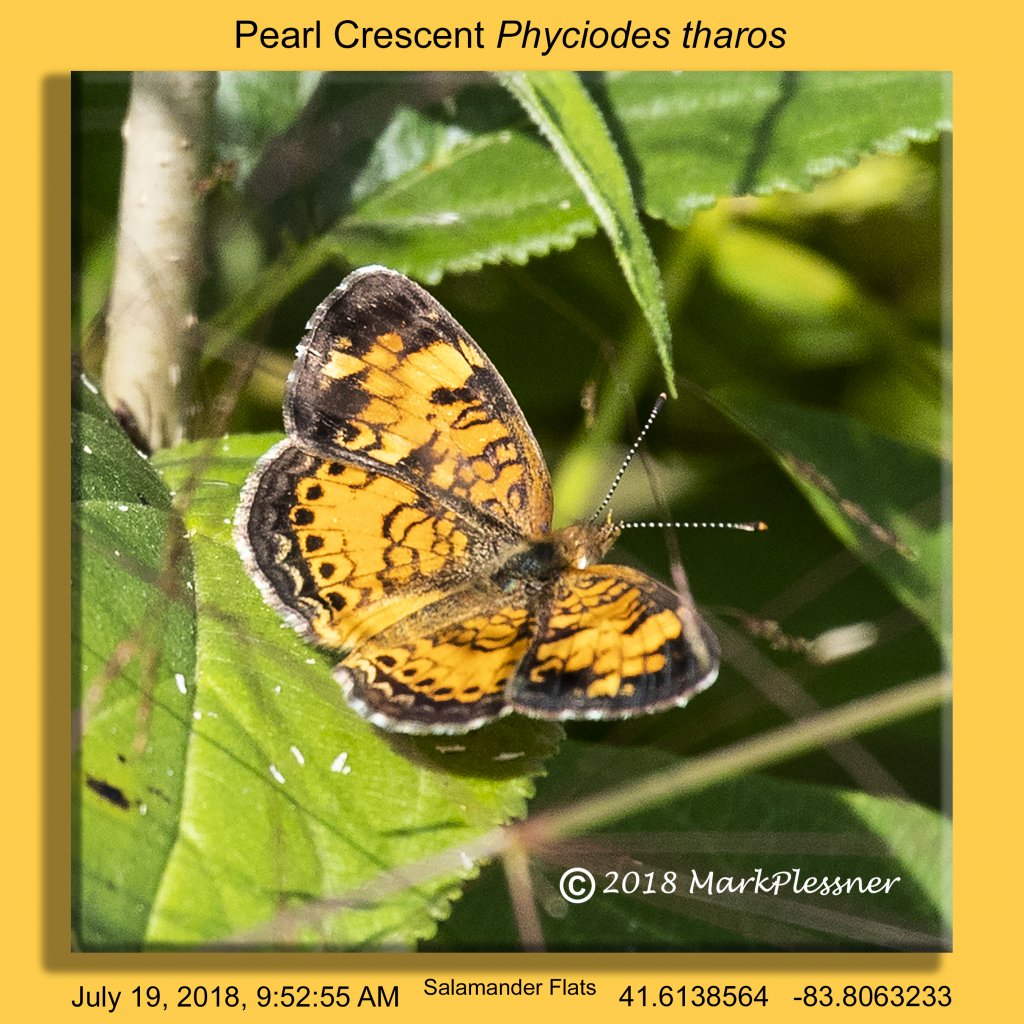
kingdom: Animalia
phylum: Arthropoda
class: Insecta
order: Lepidoptera
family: Nymphalidae
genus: Phyciodes
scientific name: Phyciodes tharos
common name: Pearl Crescent
